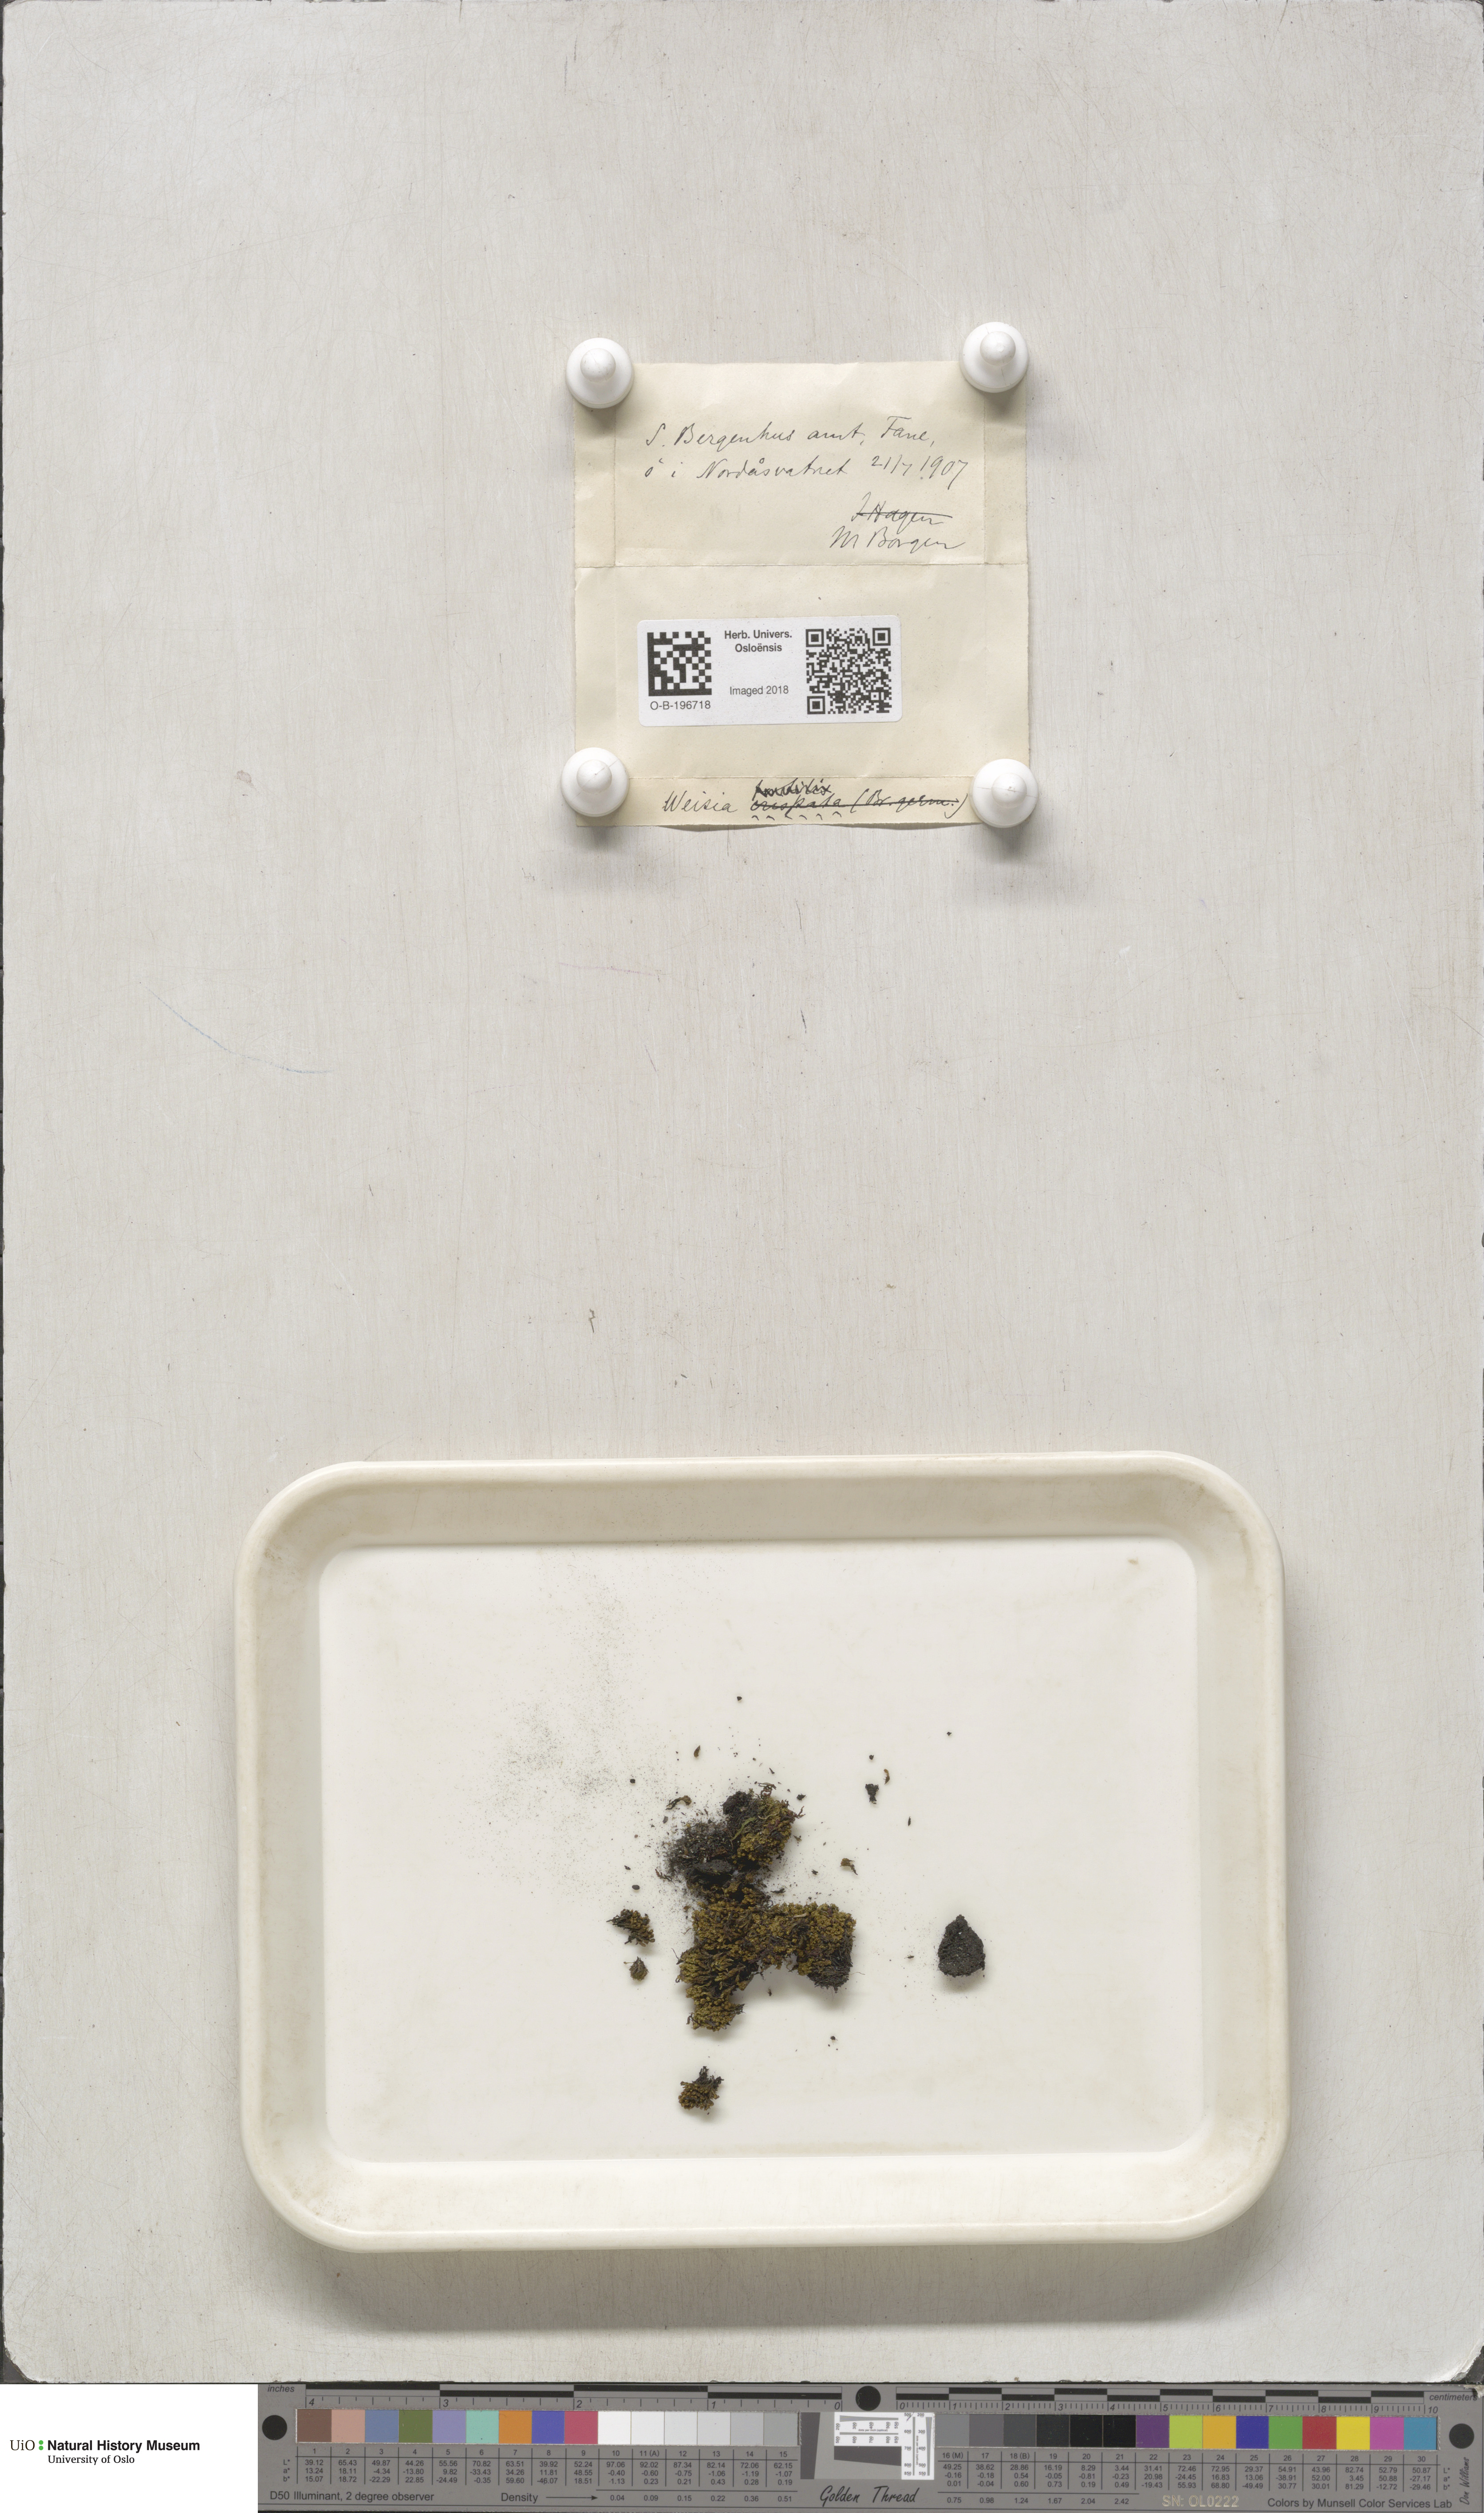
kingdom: Plantae
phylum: Bryophyta
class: Bryopsida
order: Pottiales
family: Pottiaceae
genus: Weissia
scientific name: Weissia
